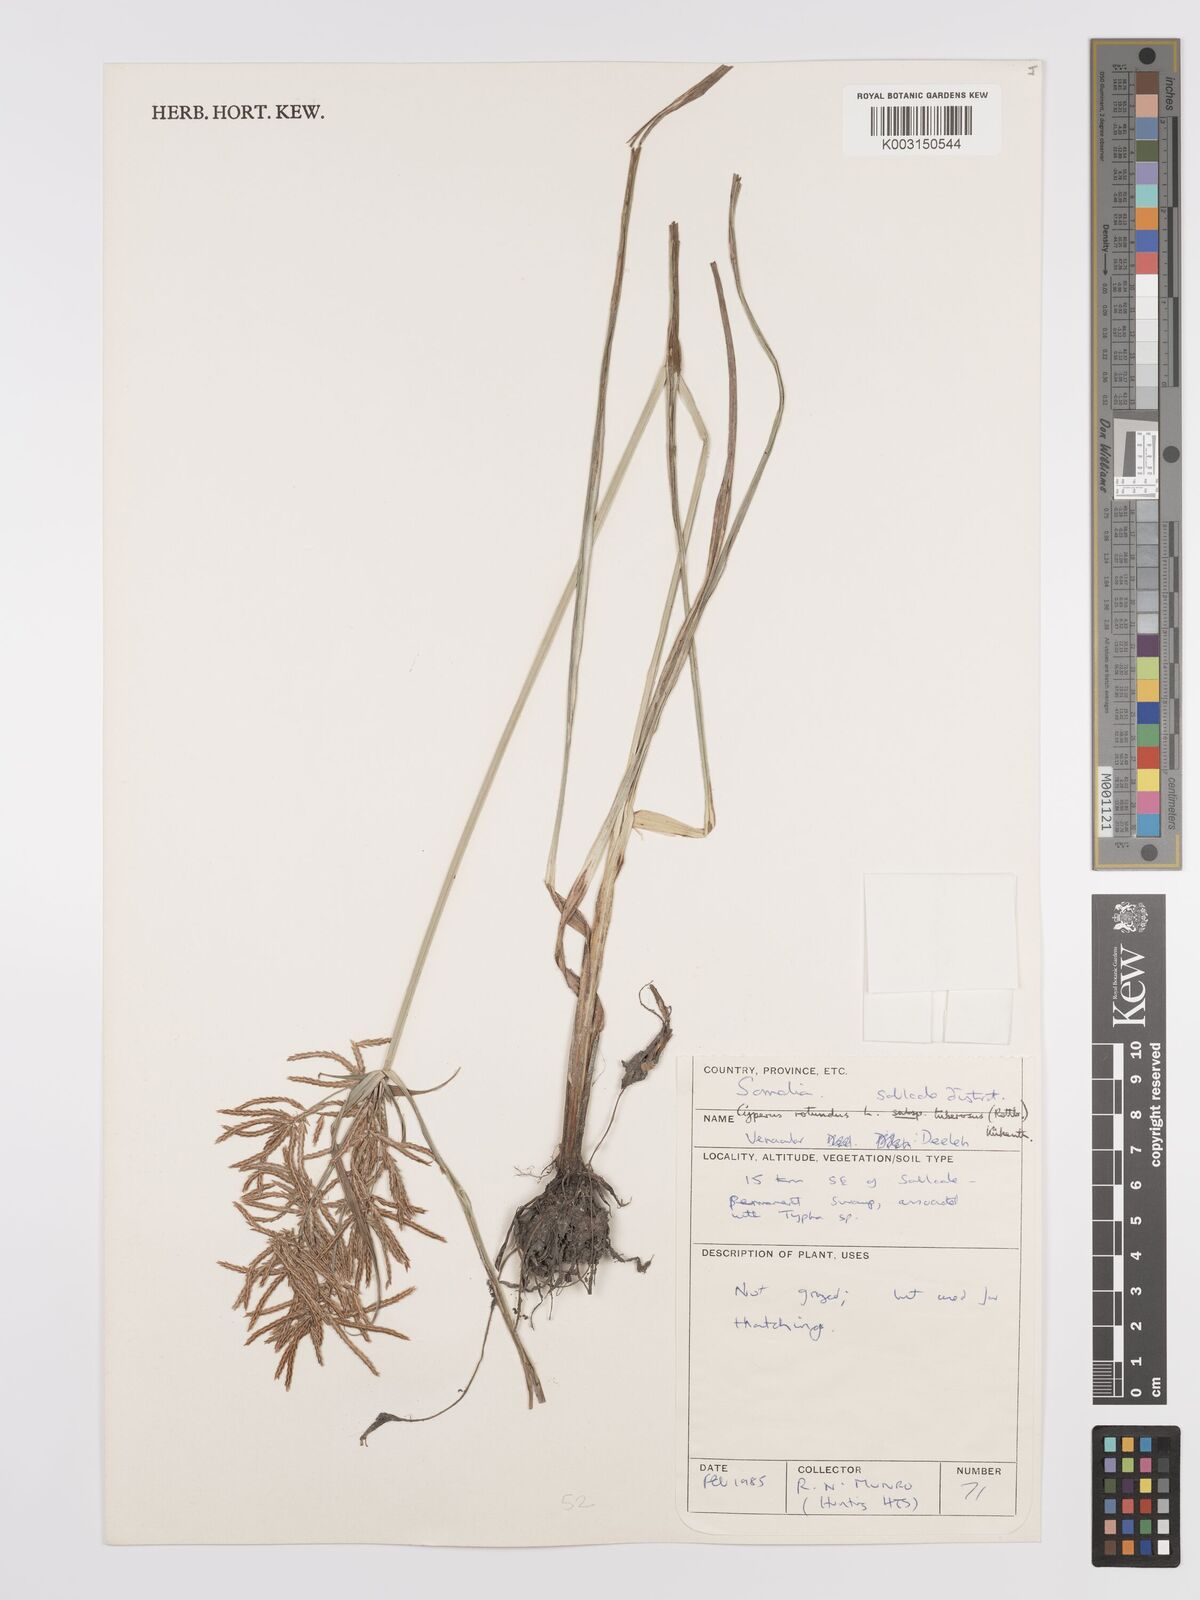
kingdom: Plantae
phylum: Tracheophyta
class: Liliopsida
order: Poales
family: Cyperaceae
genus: Cyperus
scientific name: Cyperus tuberosus
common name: Nut grass
